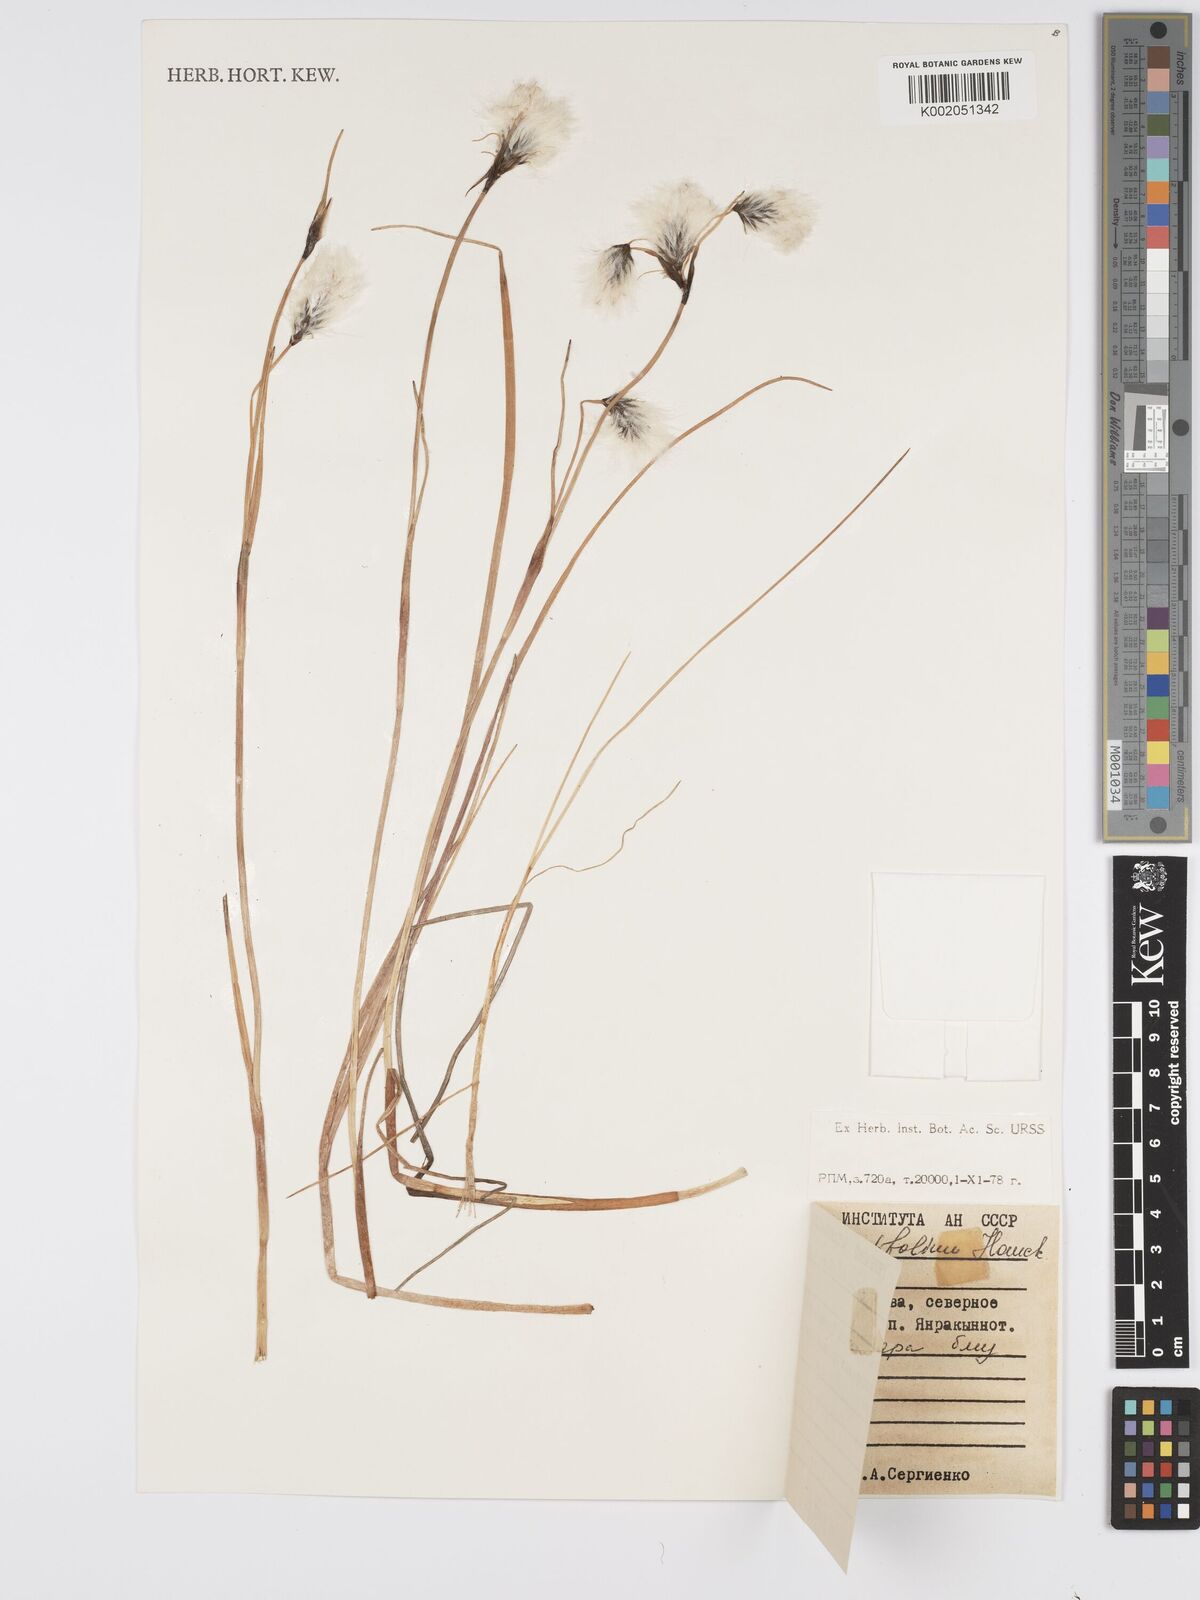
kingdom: Plantae
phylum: Tracheophyta
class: Liliopsida
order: Poales
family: Cyperaceae
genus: Eriophorum
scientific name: Eriophorum angustifolium
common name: Common cottongrass
